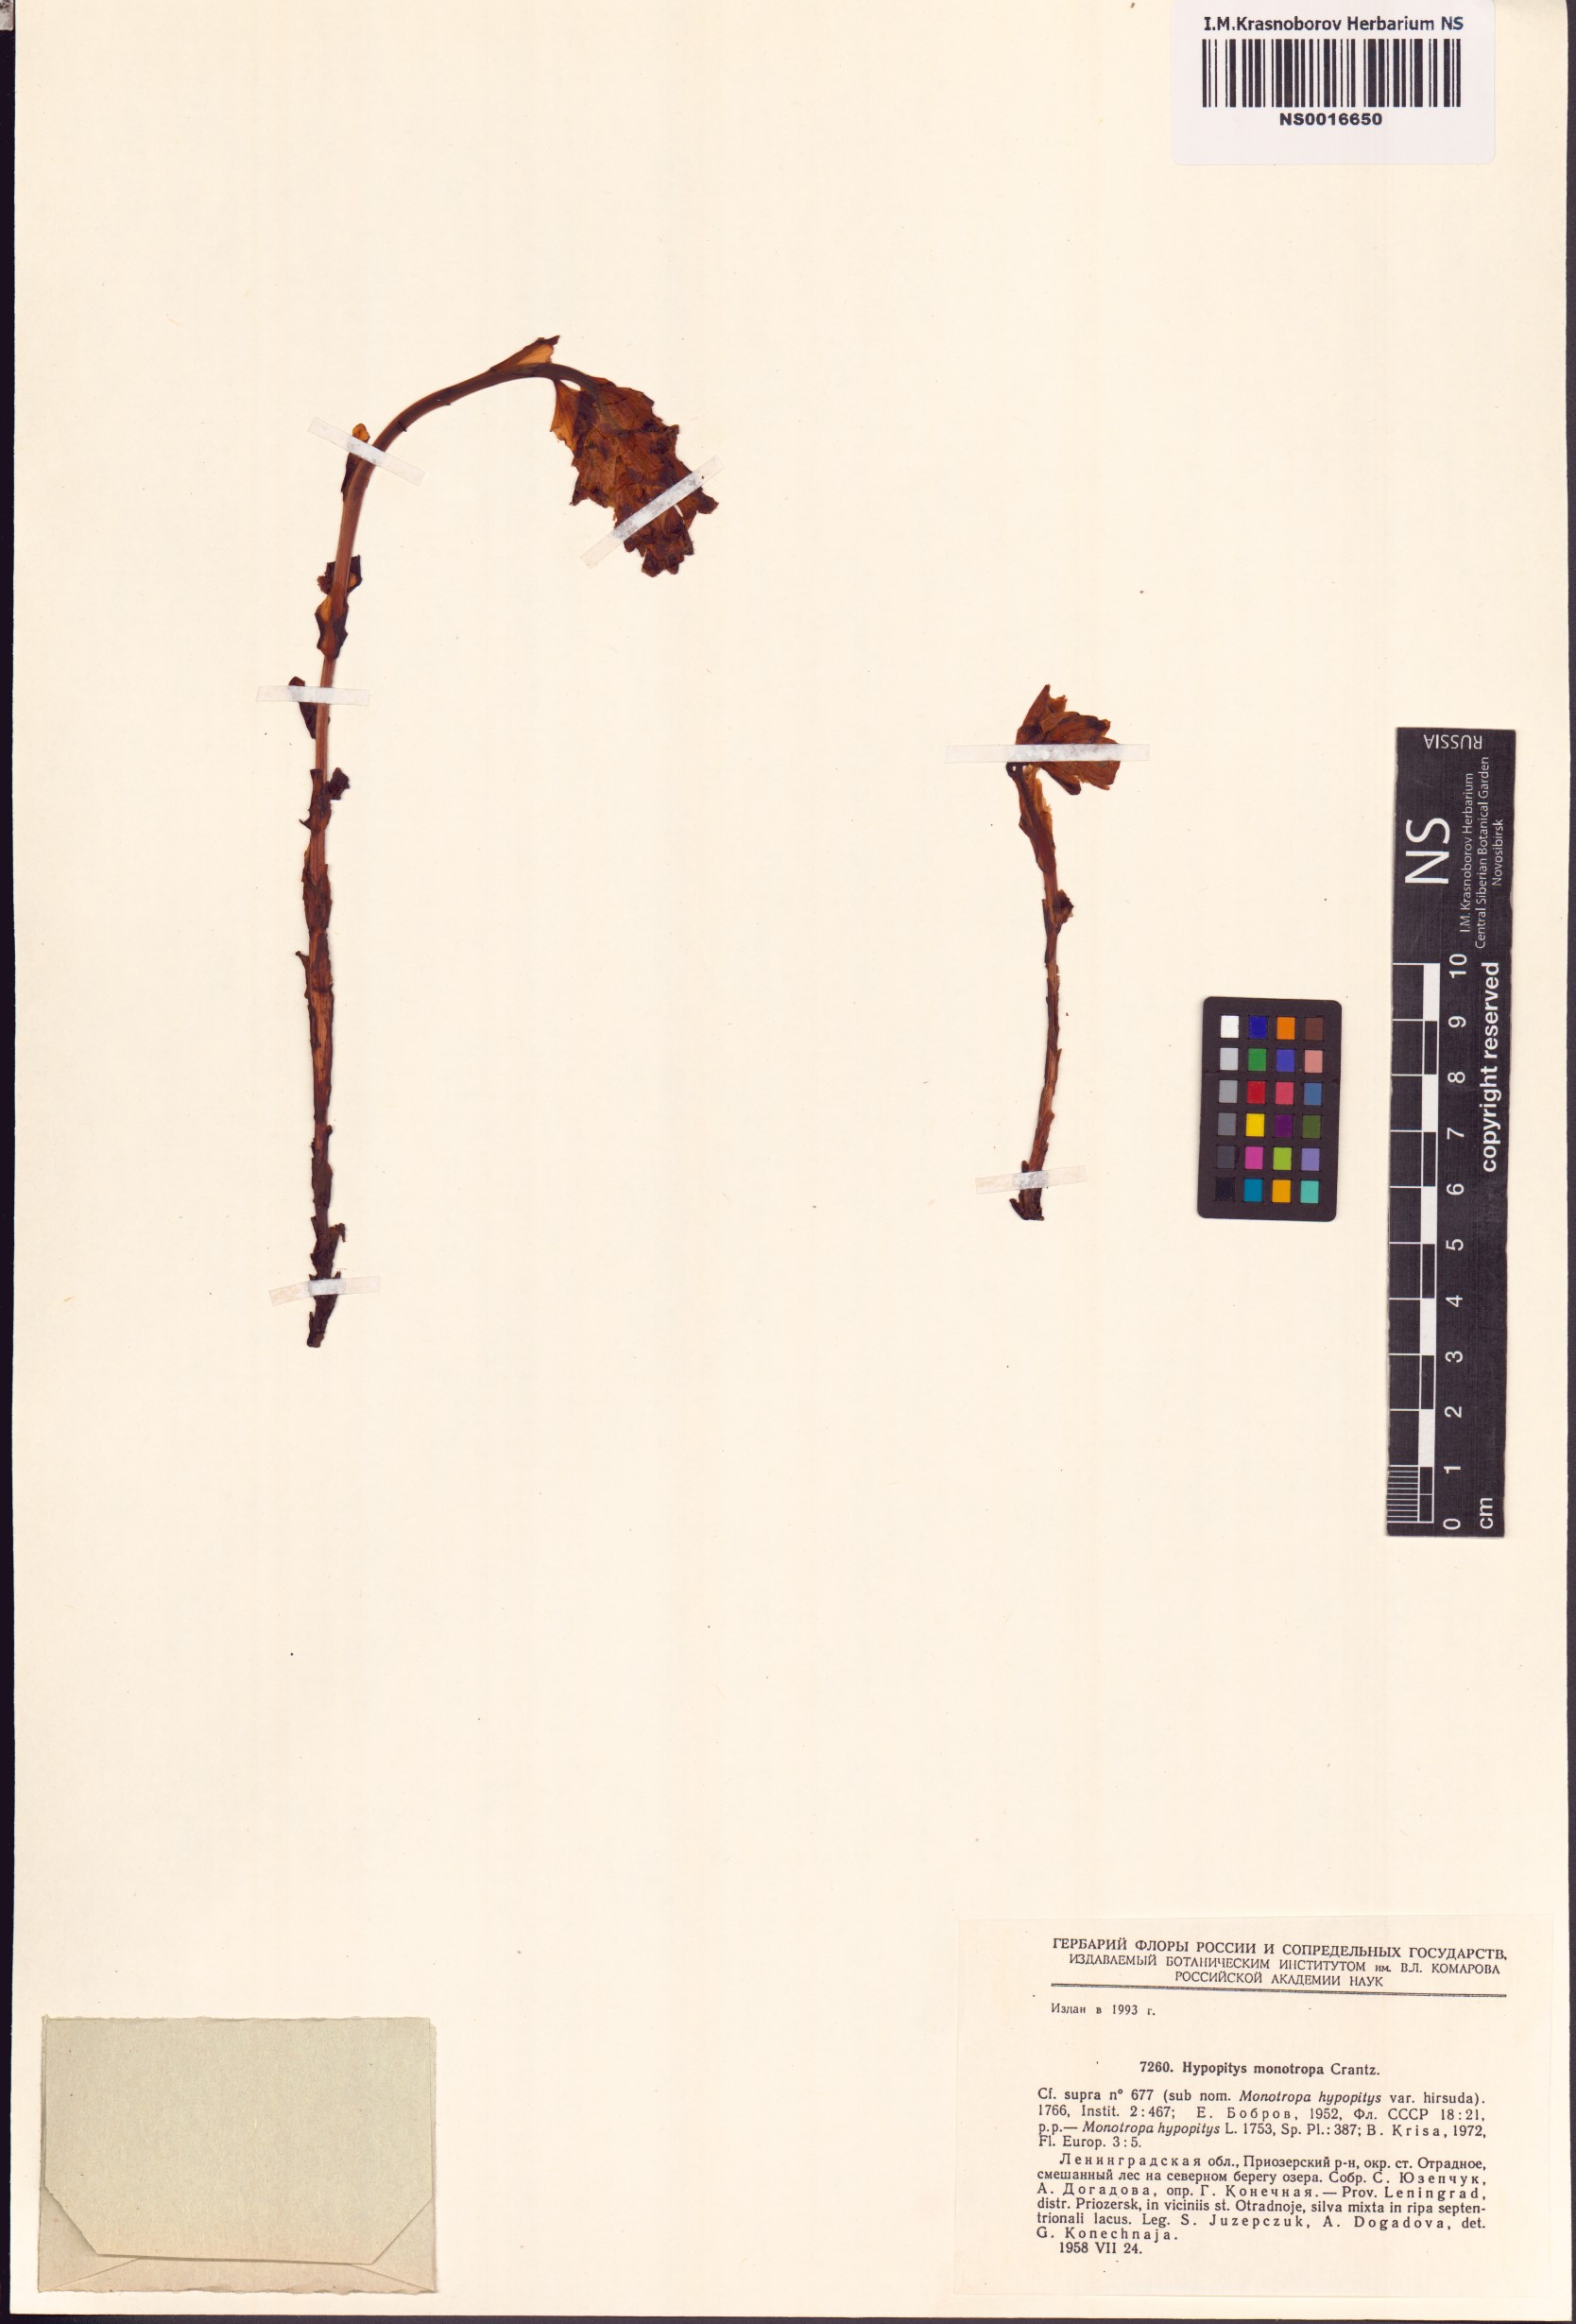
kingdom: Plantae
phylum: Tracheophyta
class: Magnoliopsida
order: Ericales
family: Ericaceae
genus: Hypopitys
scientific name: Hypopitys monotropa
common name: Yellow bird's-nest
